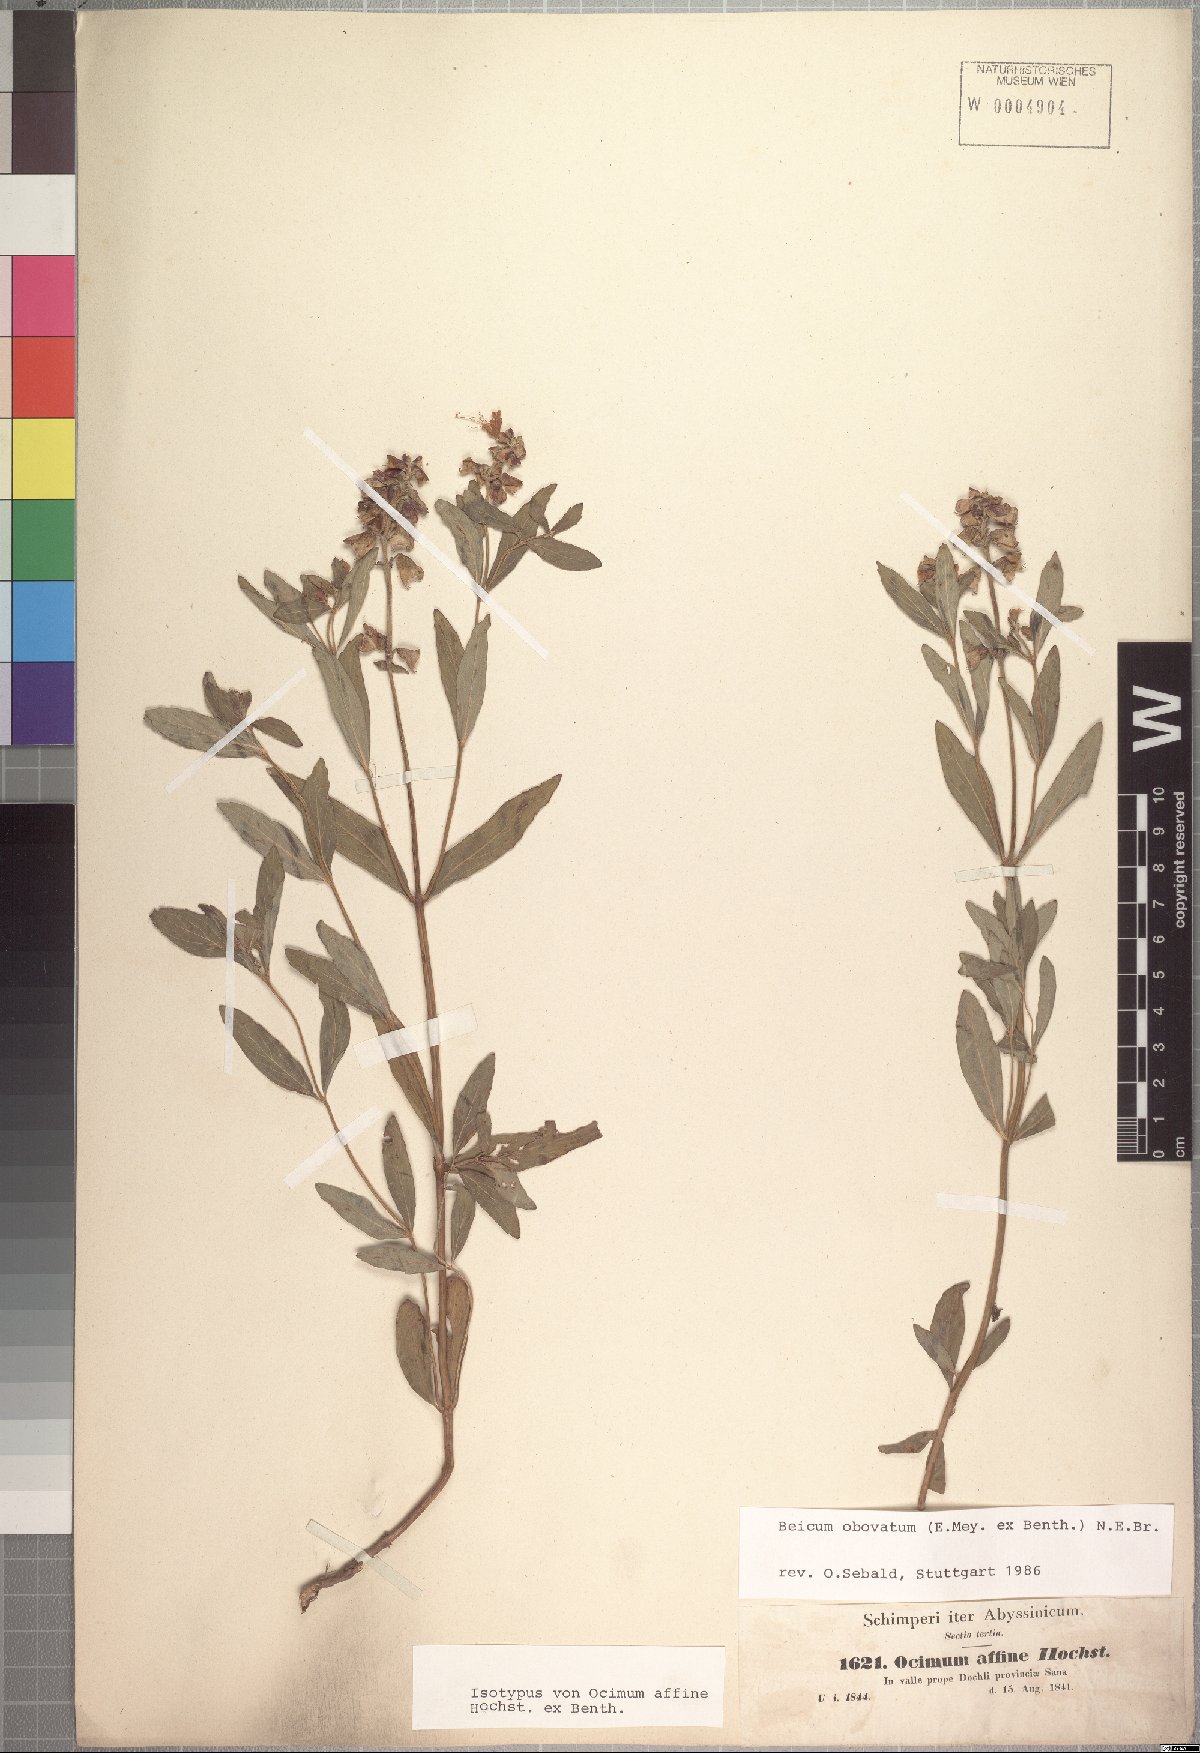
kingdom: Plantae
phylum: Tracheophyta
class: Magnoliopsida
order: Lamiales
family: Lamiaceae
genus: Ocimum
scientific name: Ocimum obovatum
